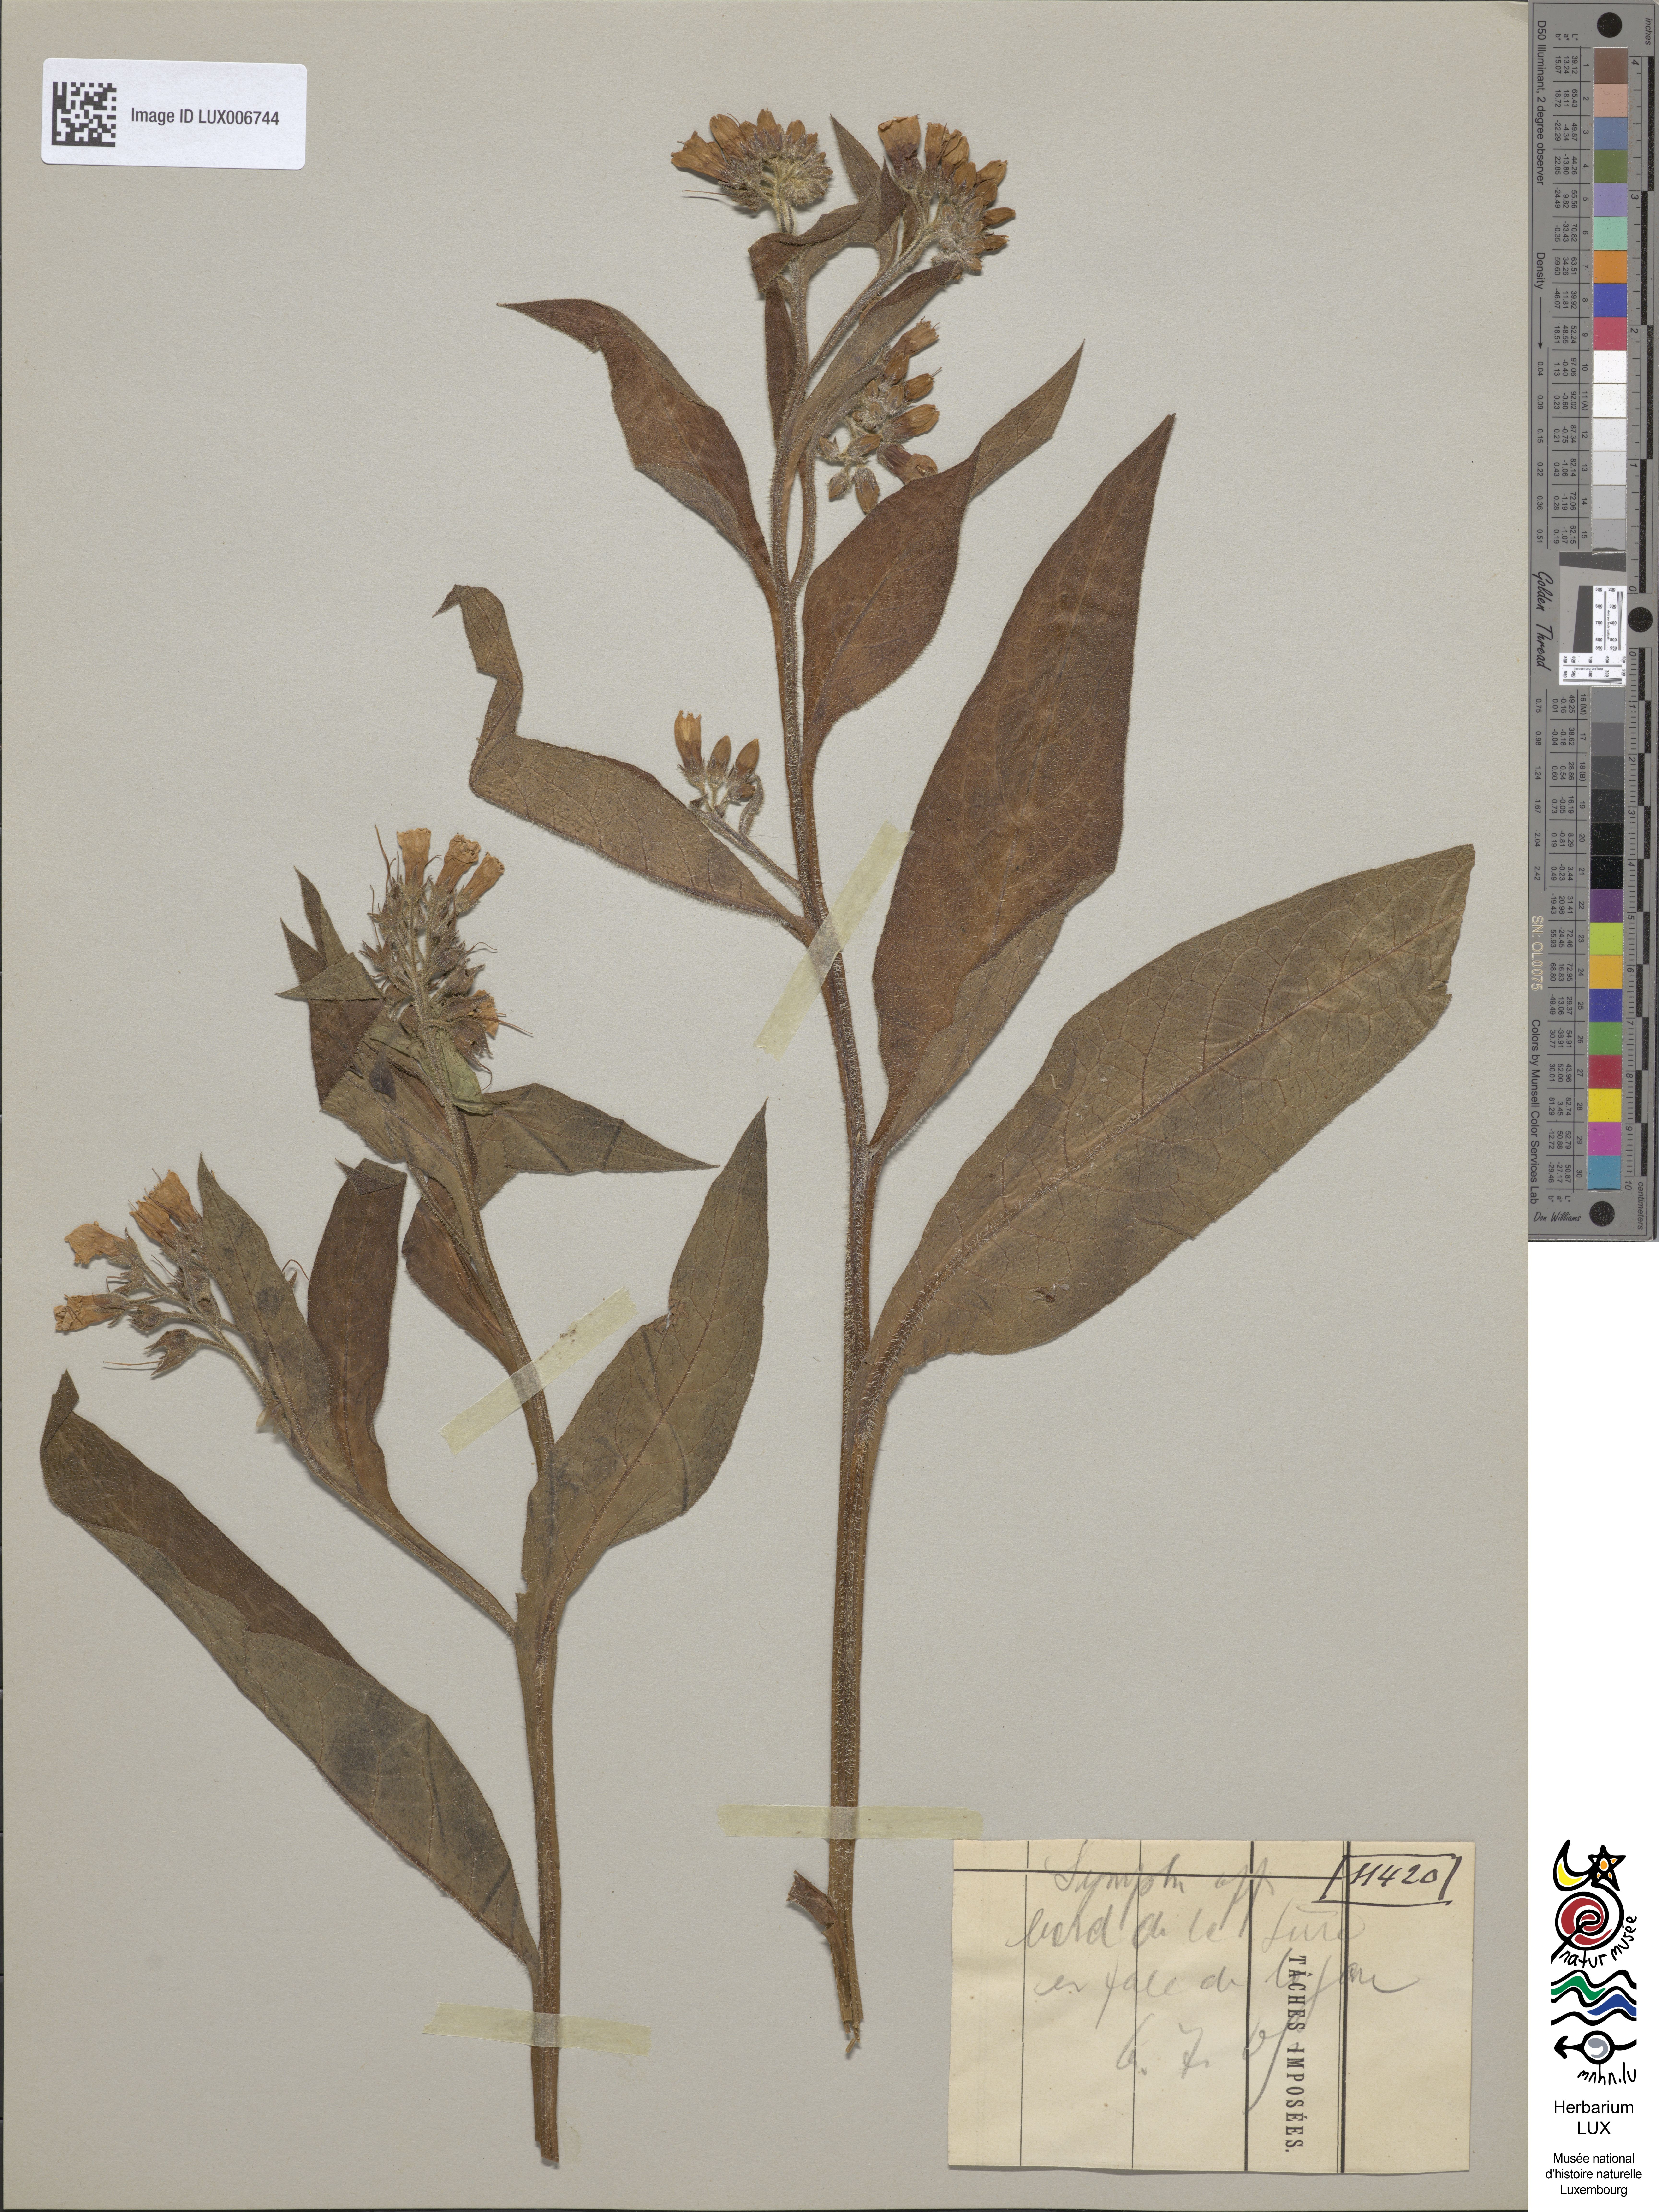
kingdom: Plantae
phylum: Tracheophyta
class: Magnoliopsida
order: Boraginales
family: Boraginaceae
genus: Symphytum
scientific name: Symphytum officinale
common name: Common comfrey
